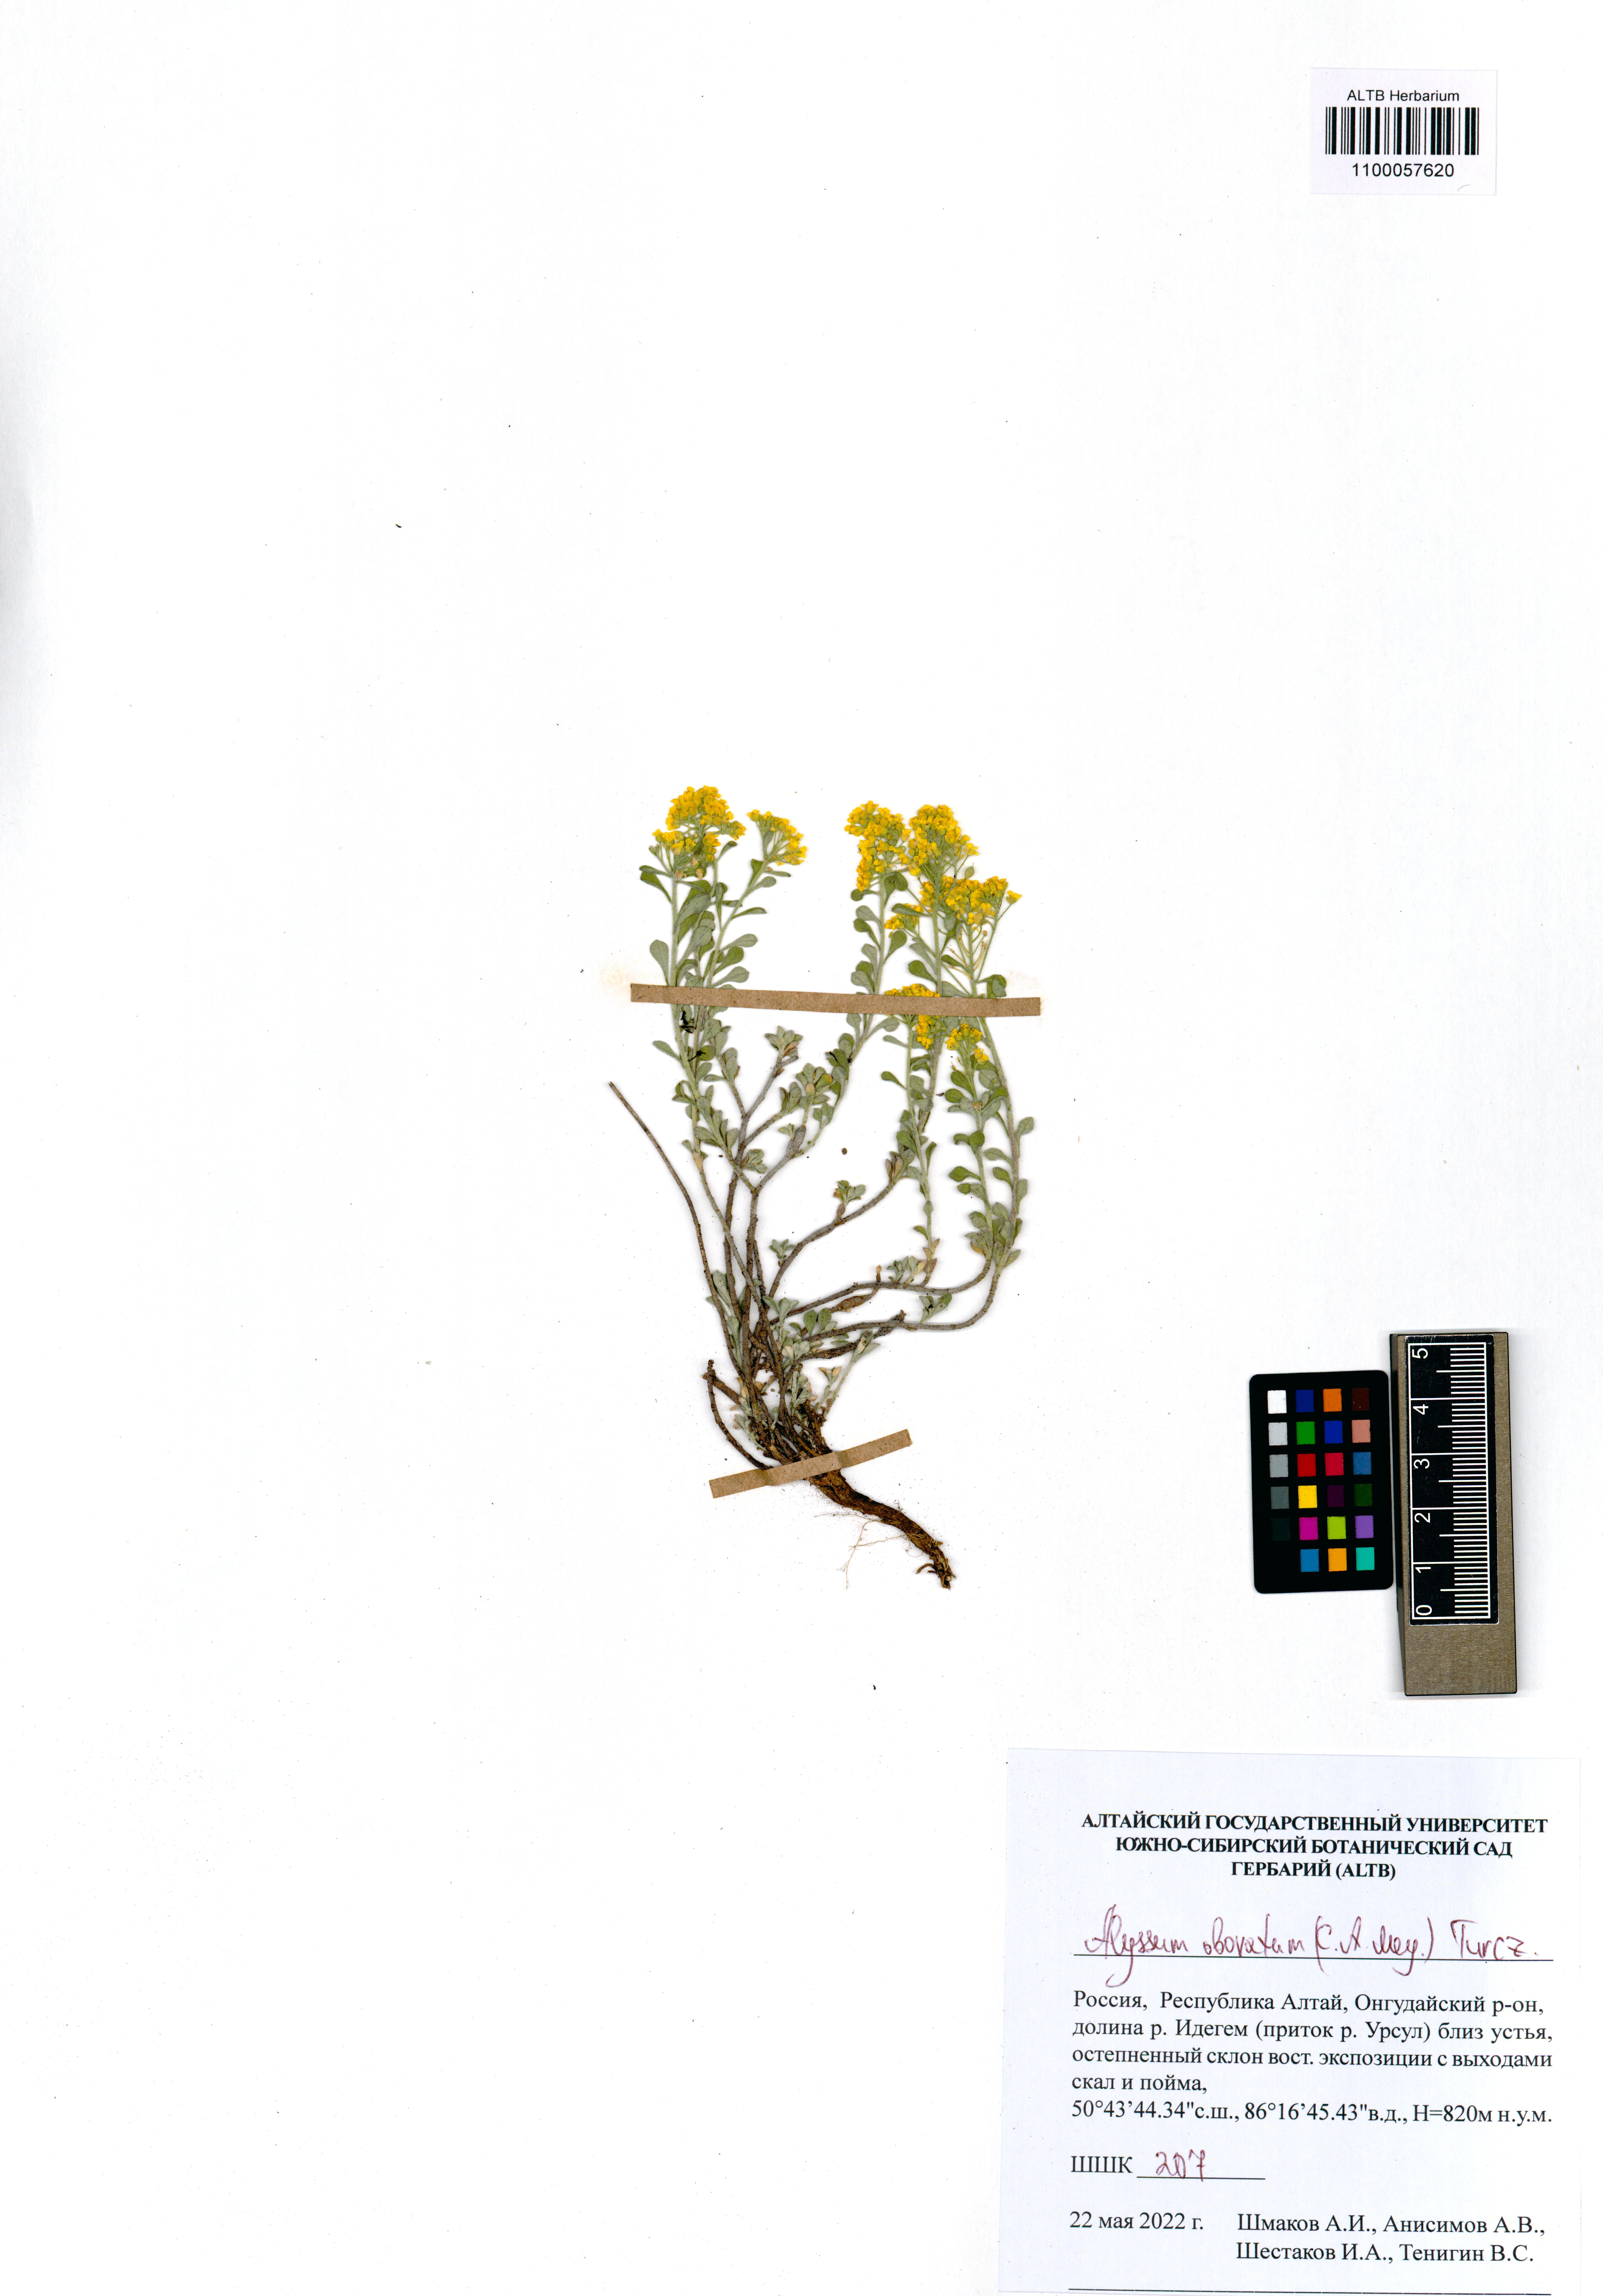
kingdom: Plantae
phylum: Tracheophyta
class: Magnoliopsida
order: Brassicales
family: Brassicaceae
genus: Odontarrhena
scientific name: Odontarrhena obovata
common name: American alyssum
